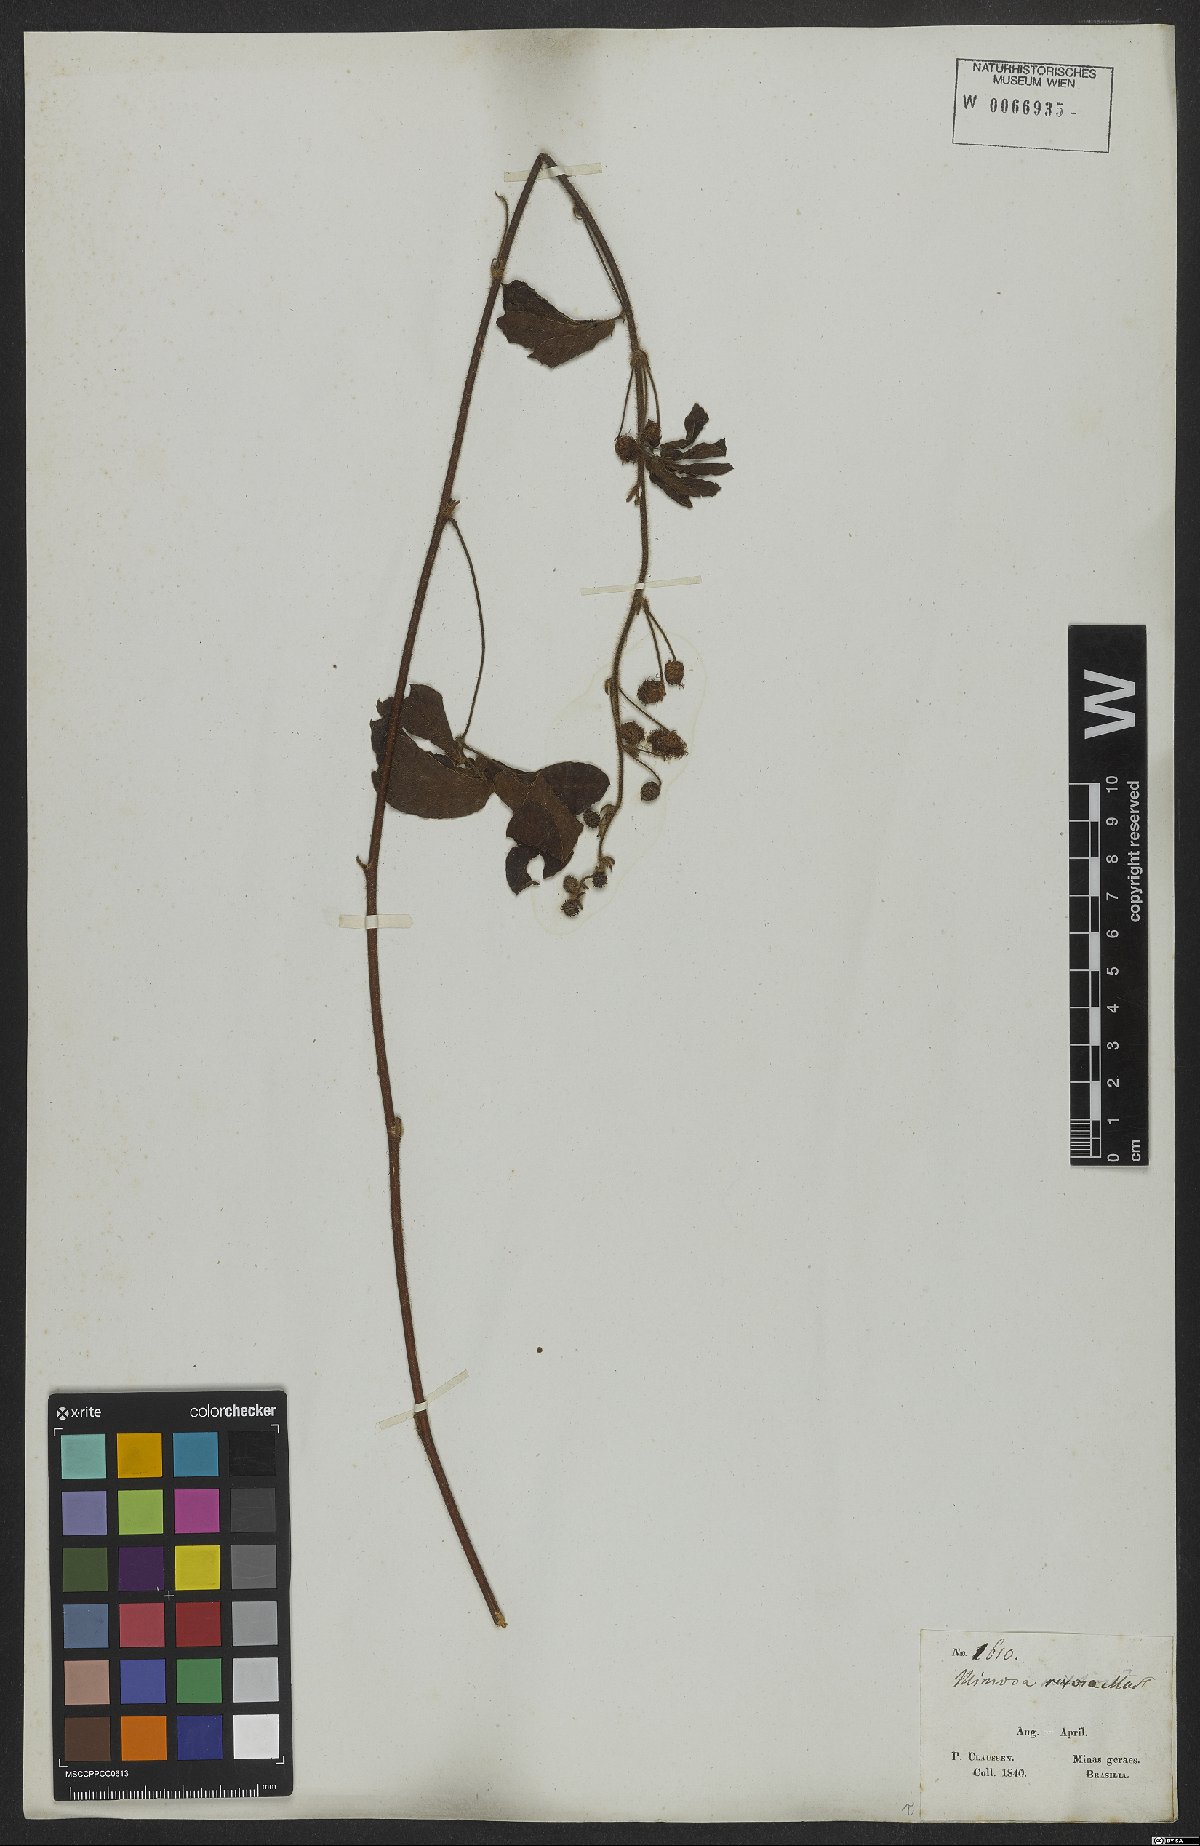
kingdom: Plantae
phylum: Tracheophyta
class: Magnoliopsida
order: Fabales
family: Fabaceae
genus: Mimosa
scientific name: Mimosa debilis
